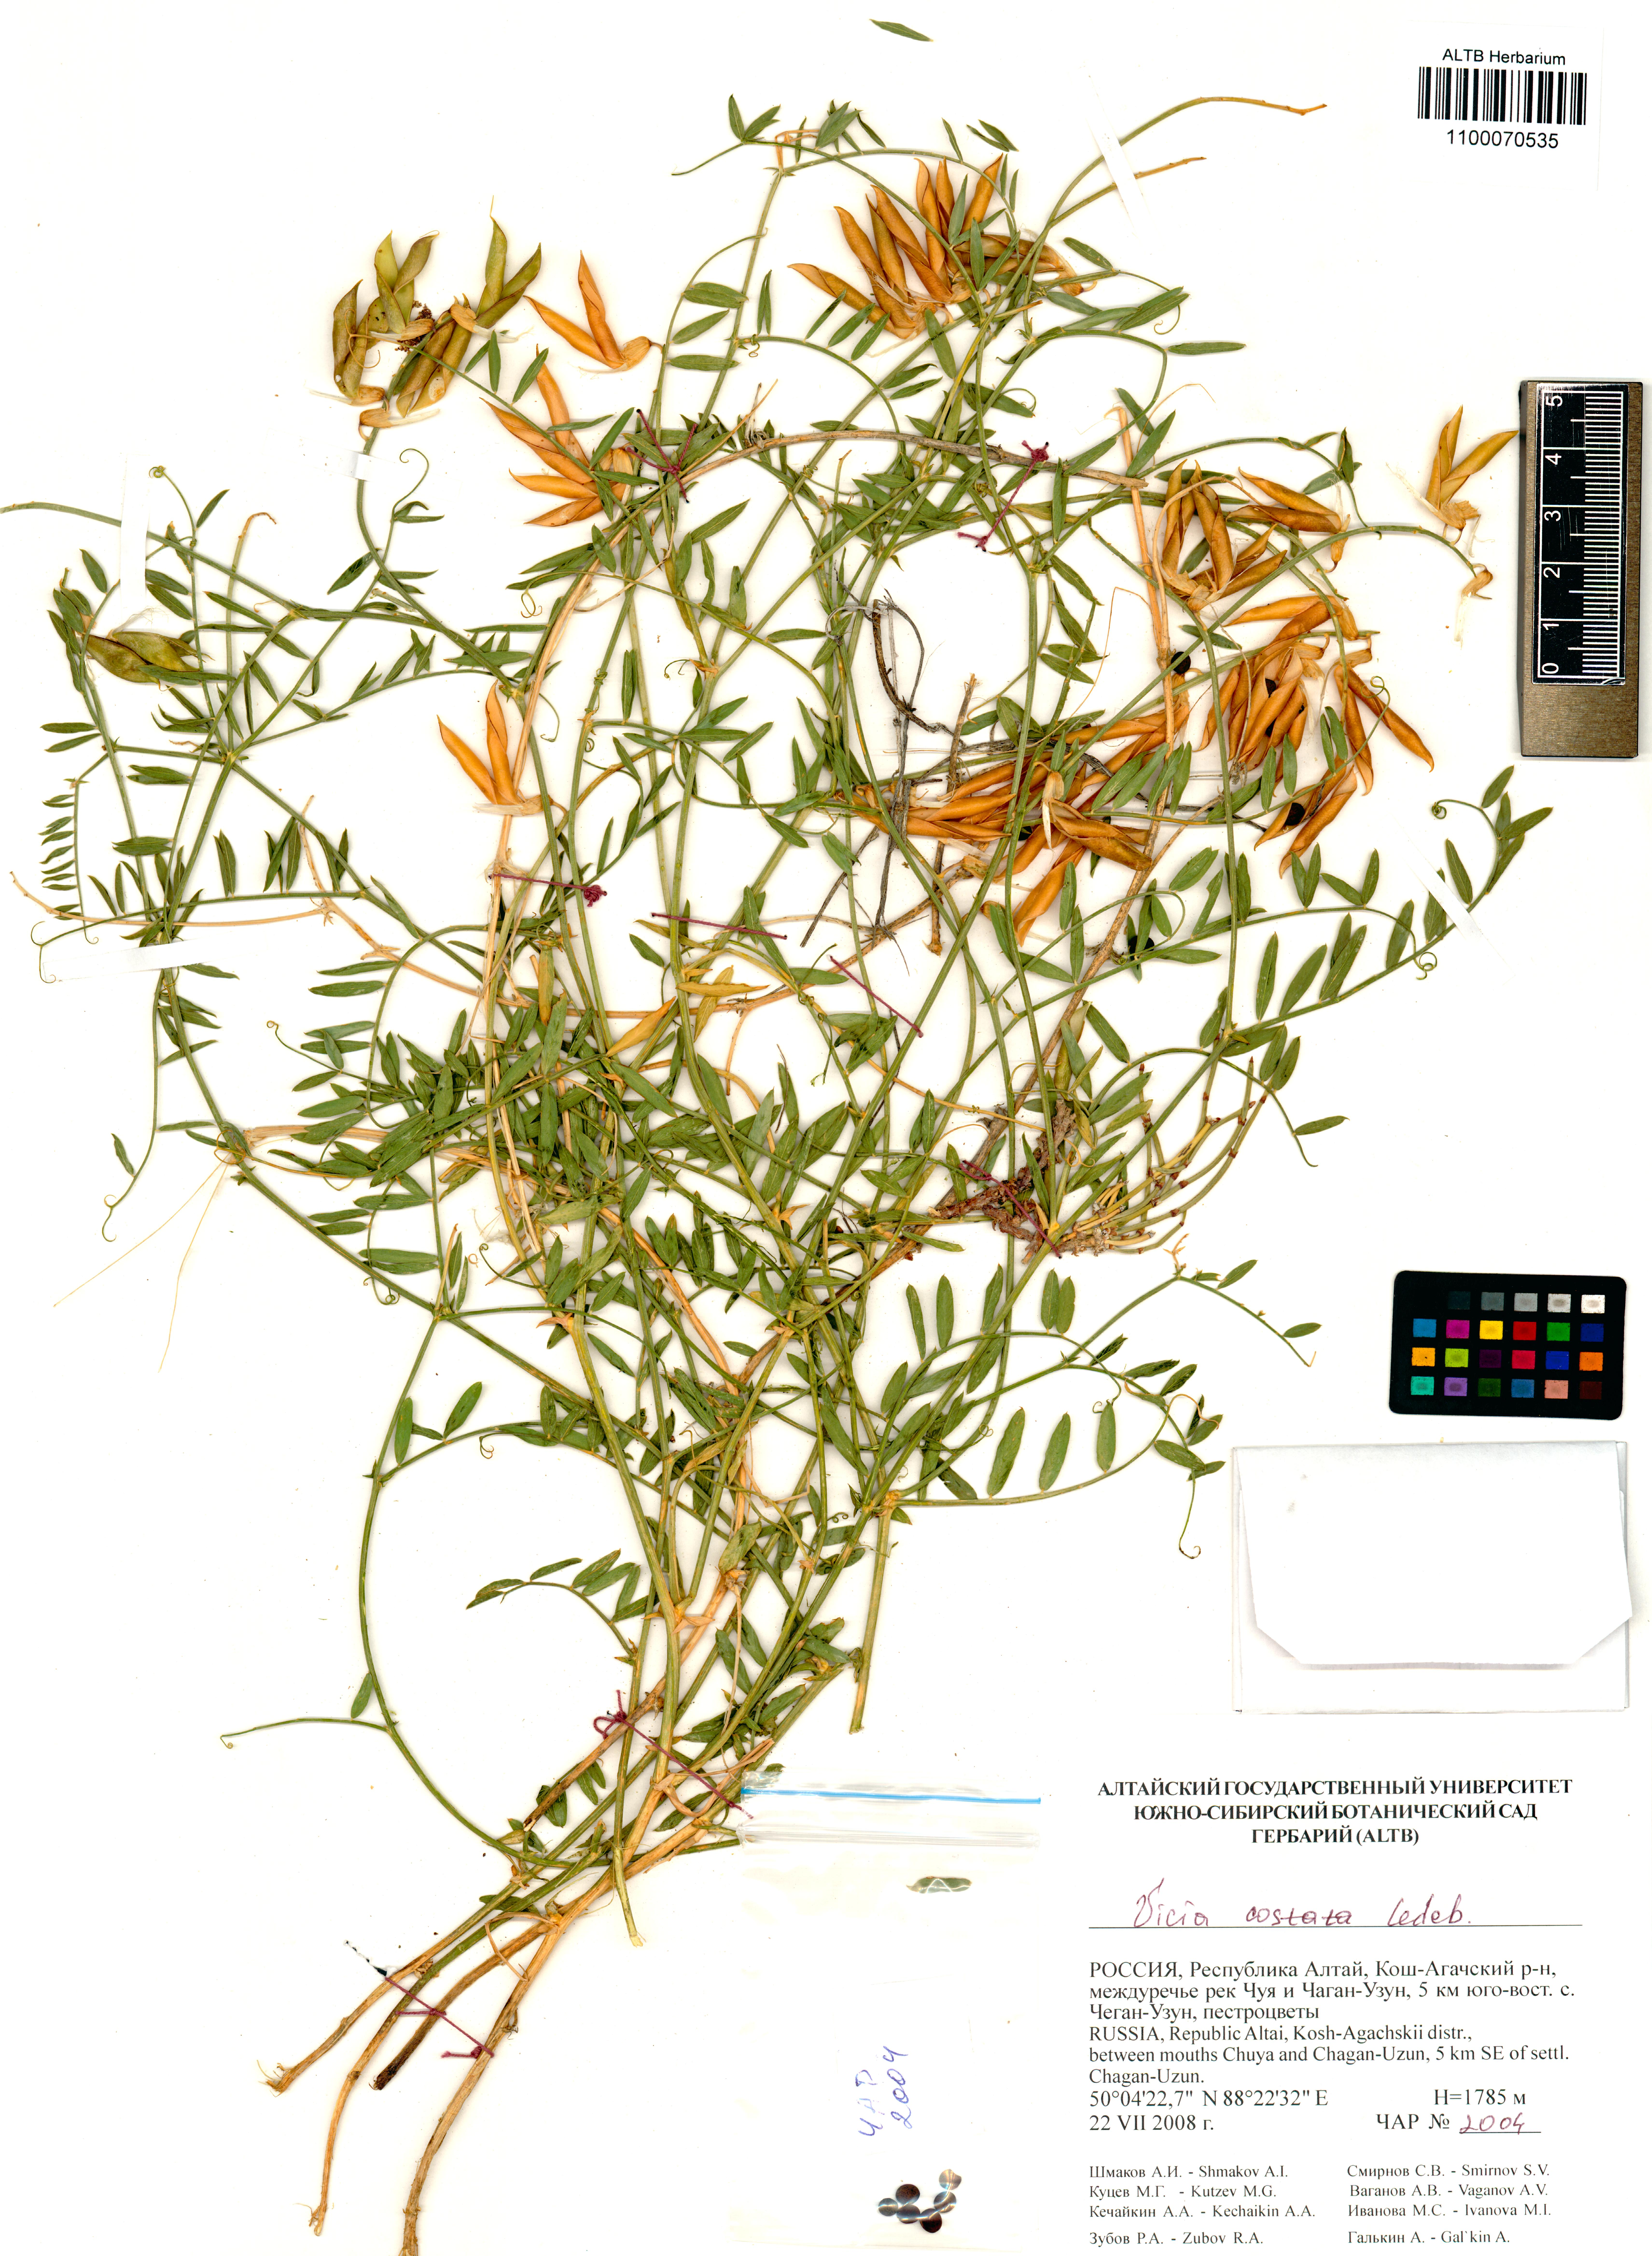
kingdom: Plantae
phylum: Tracheophyta
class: Magnoliopsida
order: Fabales
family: Fabaceae
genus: Vicia
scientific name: Vicia costata
